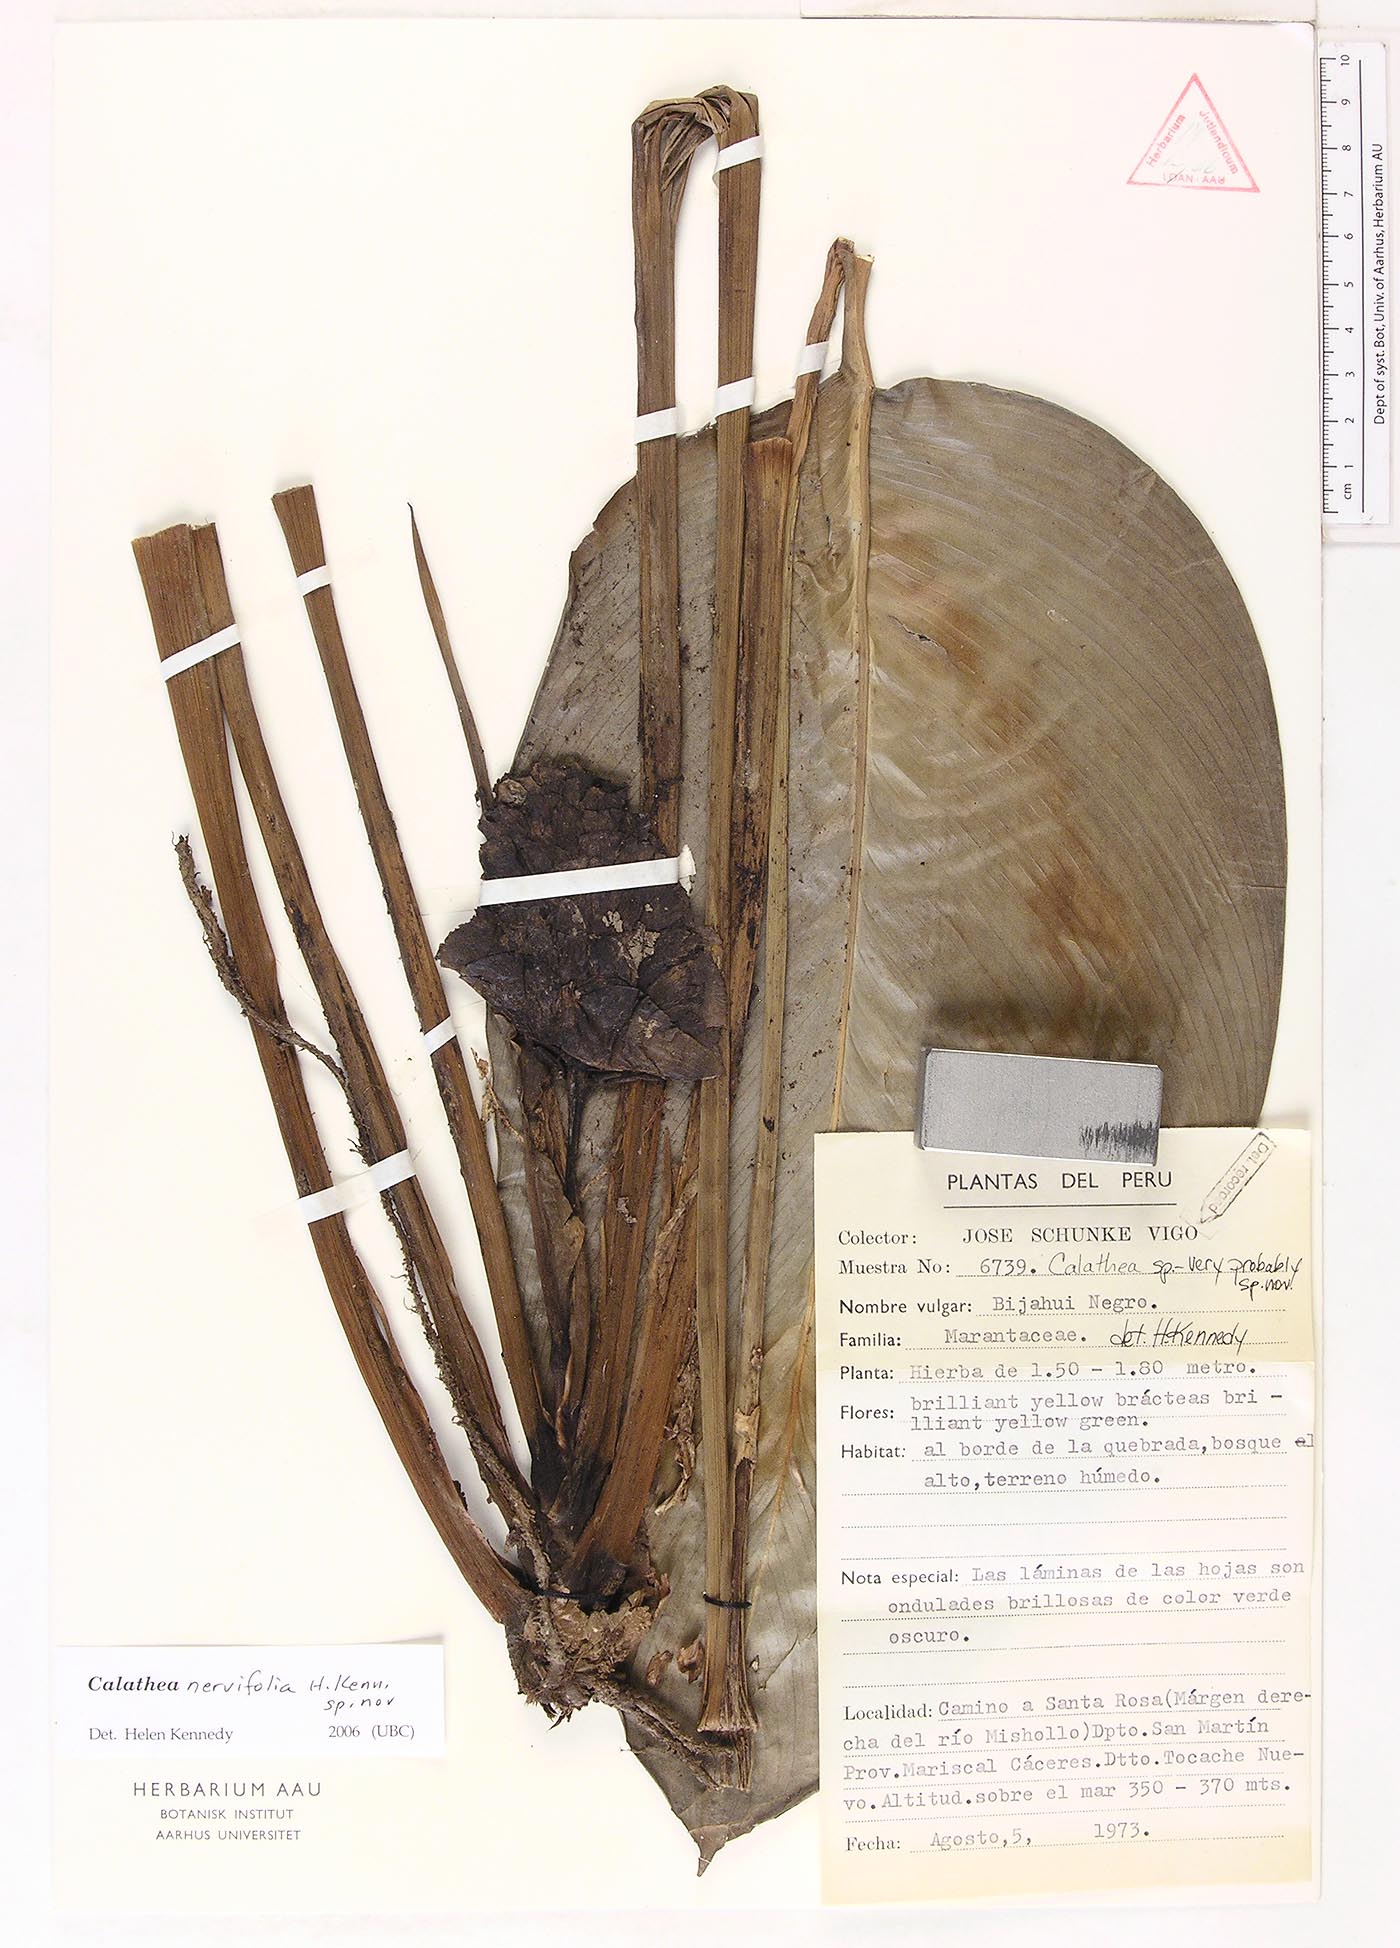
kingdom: Plantae
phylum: Tracheophyta
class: Magnoliopsida
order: Laurales
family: Lauraceae
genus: Goeppertia
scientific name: Goeppertia
